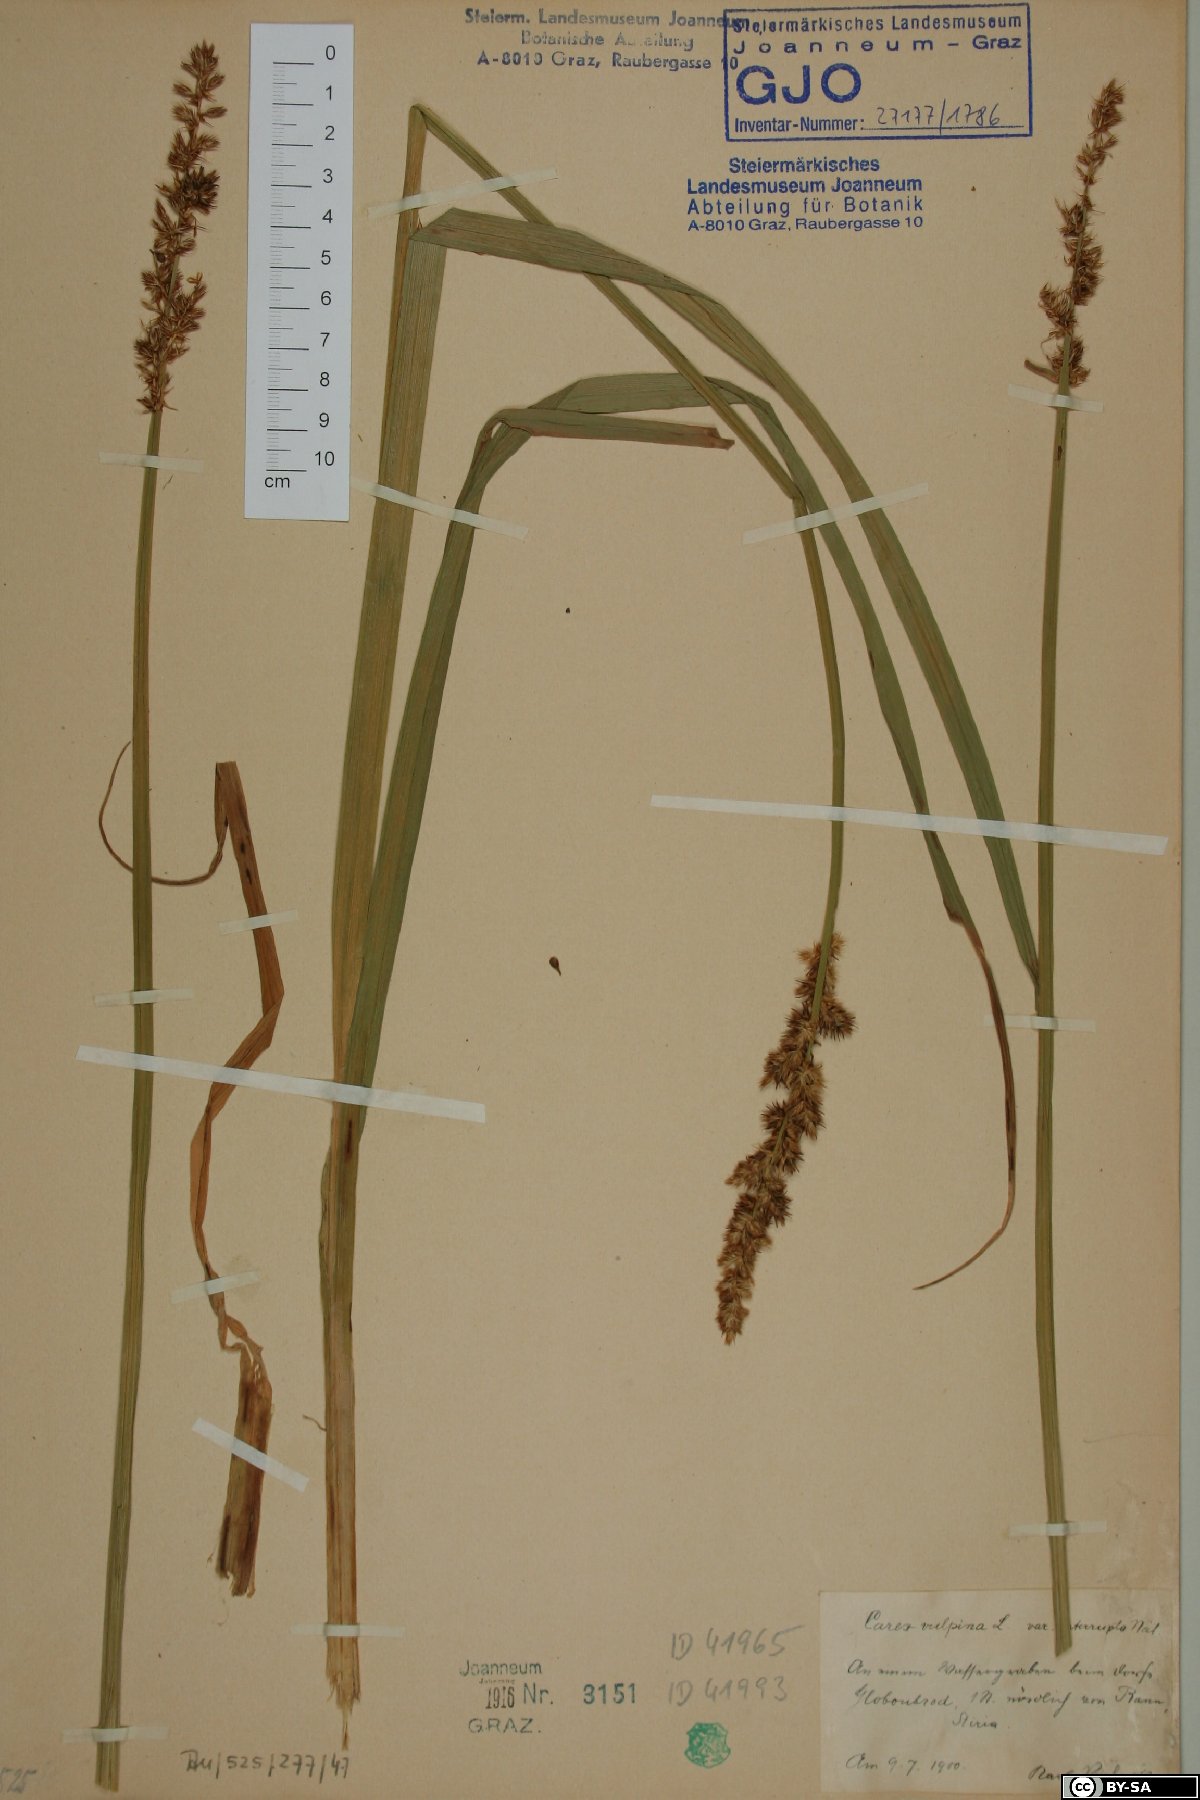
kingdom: Plantae
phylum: Tracheophyta
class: Liliopsida
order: Poales
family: Cyperaceae
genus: Carex
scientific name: Carex otrubae
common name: False fox-sedge
